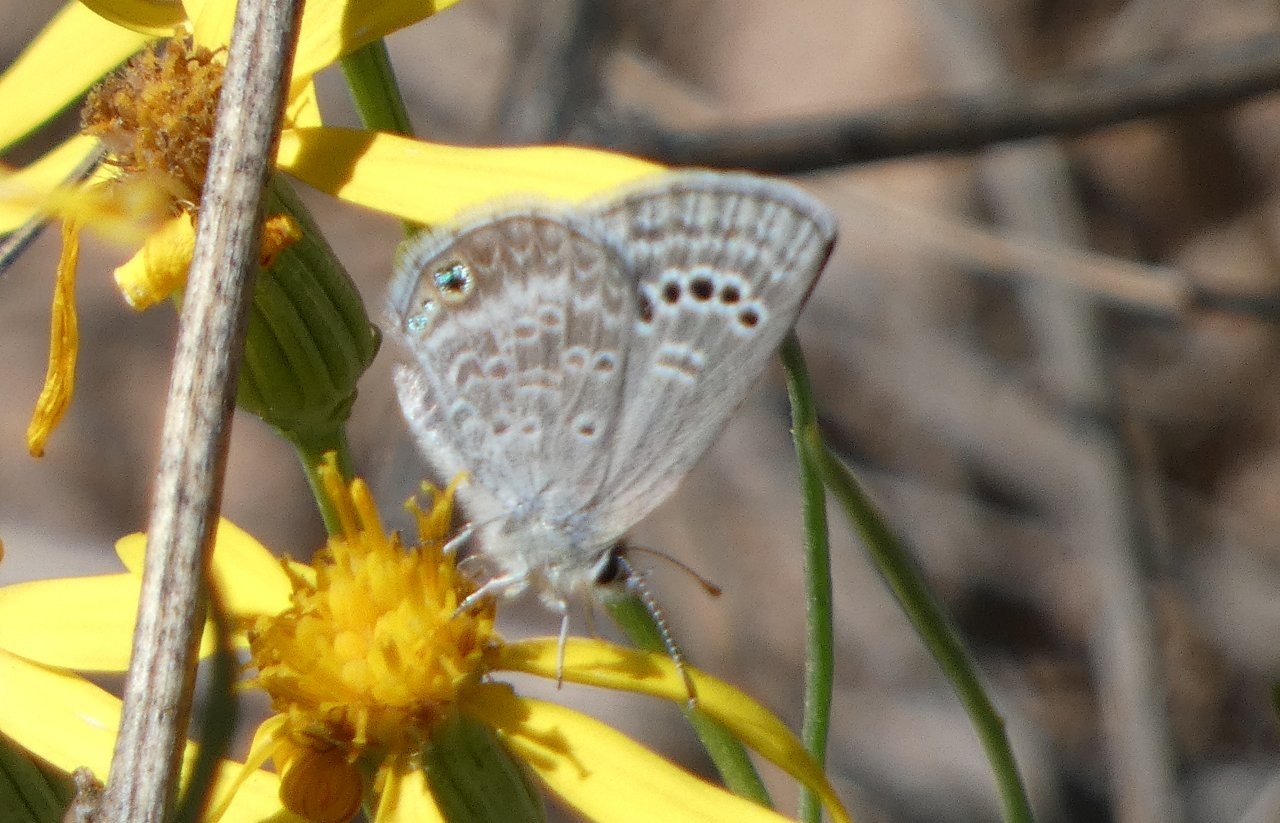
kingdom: Animalia
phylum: Arthropoda
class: Insecta
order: Lepidoptera
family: Lycaenidae
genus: Echinargus
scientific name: Echinargus isola
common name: Reakirt's Blue
